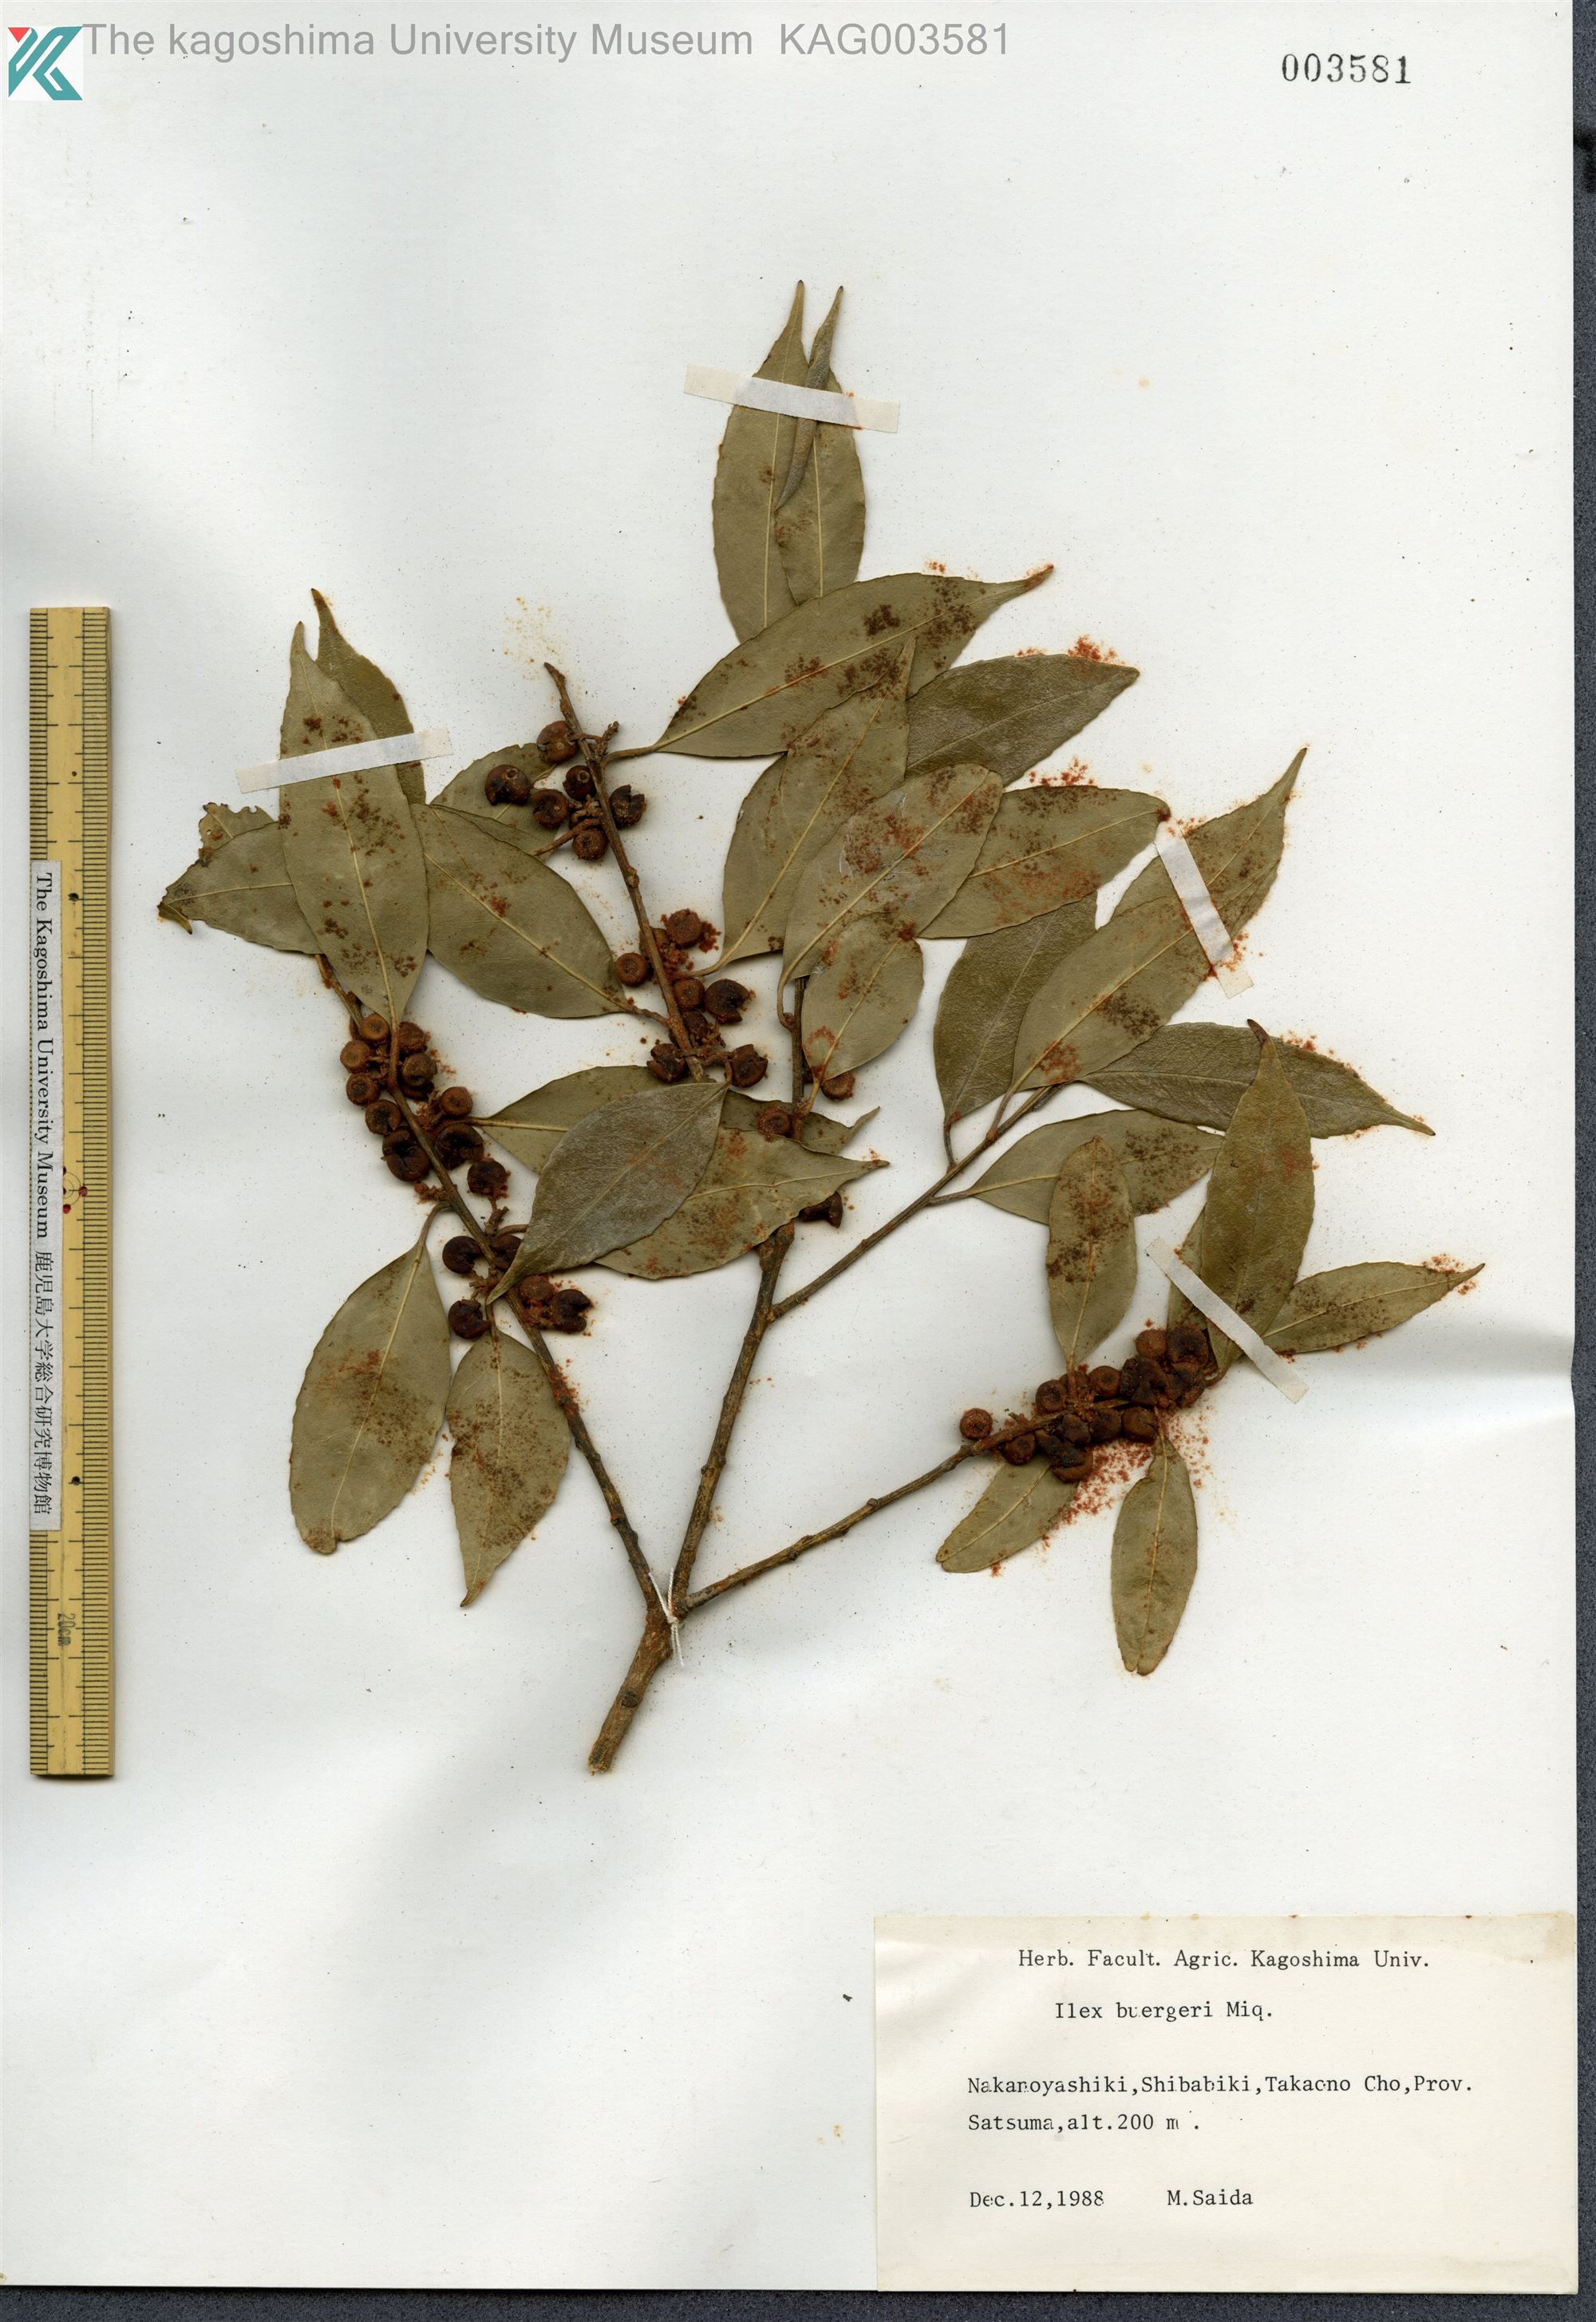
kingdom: Plantae
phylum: Tracheophyta
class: Magnoliopsida
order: Aquifoliales
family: Aquifoliaceae
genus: Ilex
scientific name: Ilex buergeri
